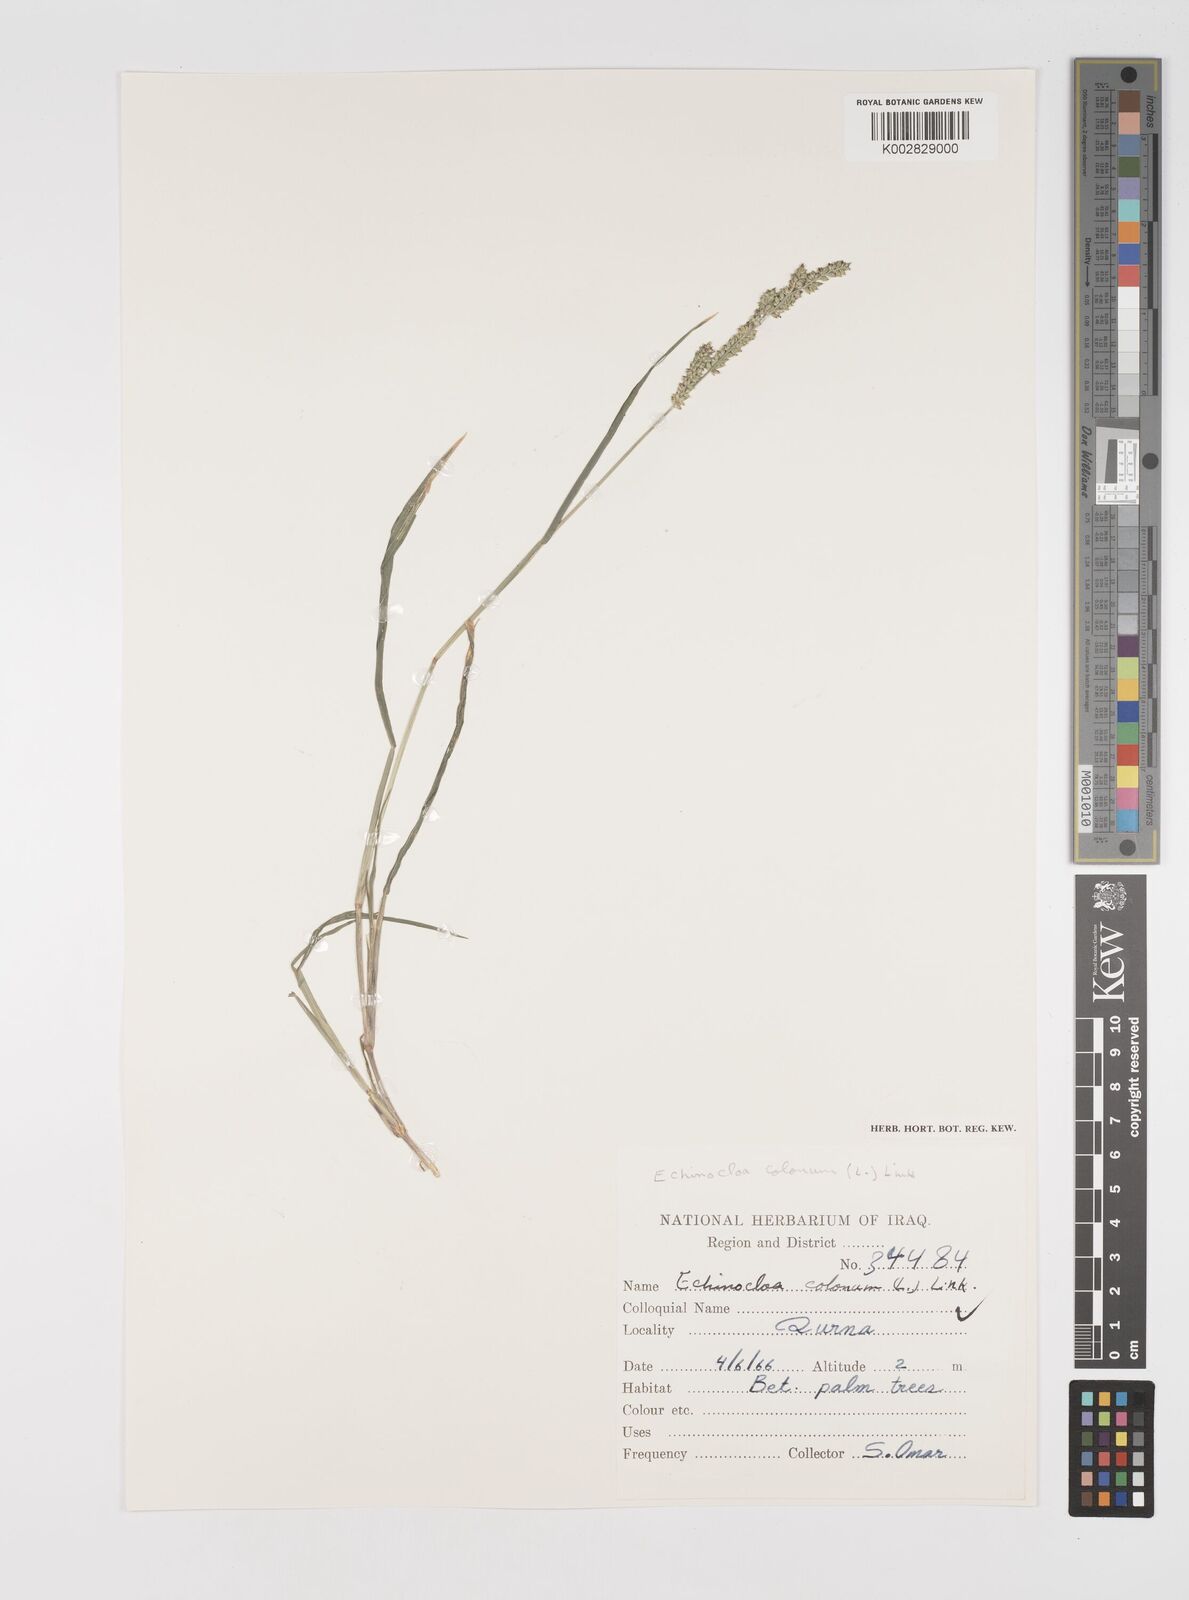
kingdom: Plantae
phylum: Tracheophyta
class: Liliopsida
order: Poales
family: Poaceae
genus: Echinochloa
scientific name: Echinochloa colonum
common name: Jungle rice
